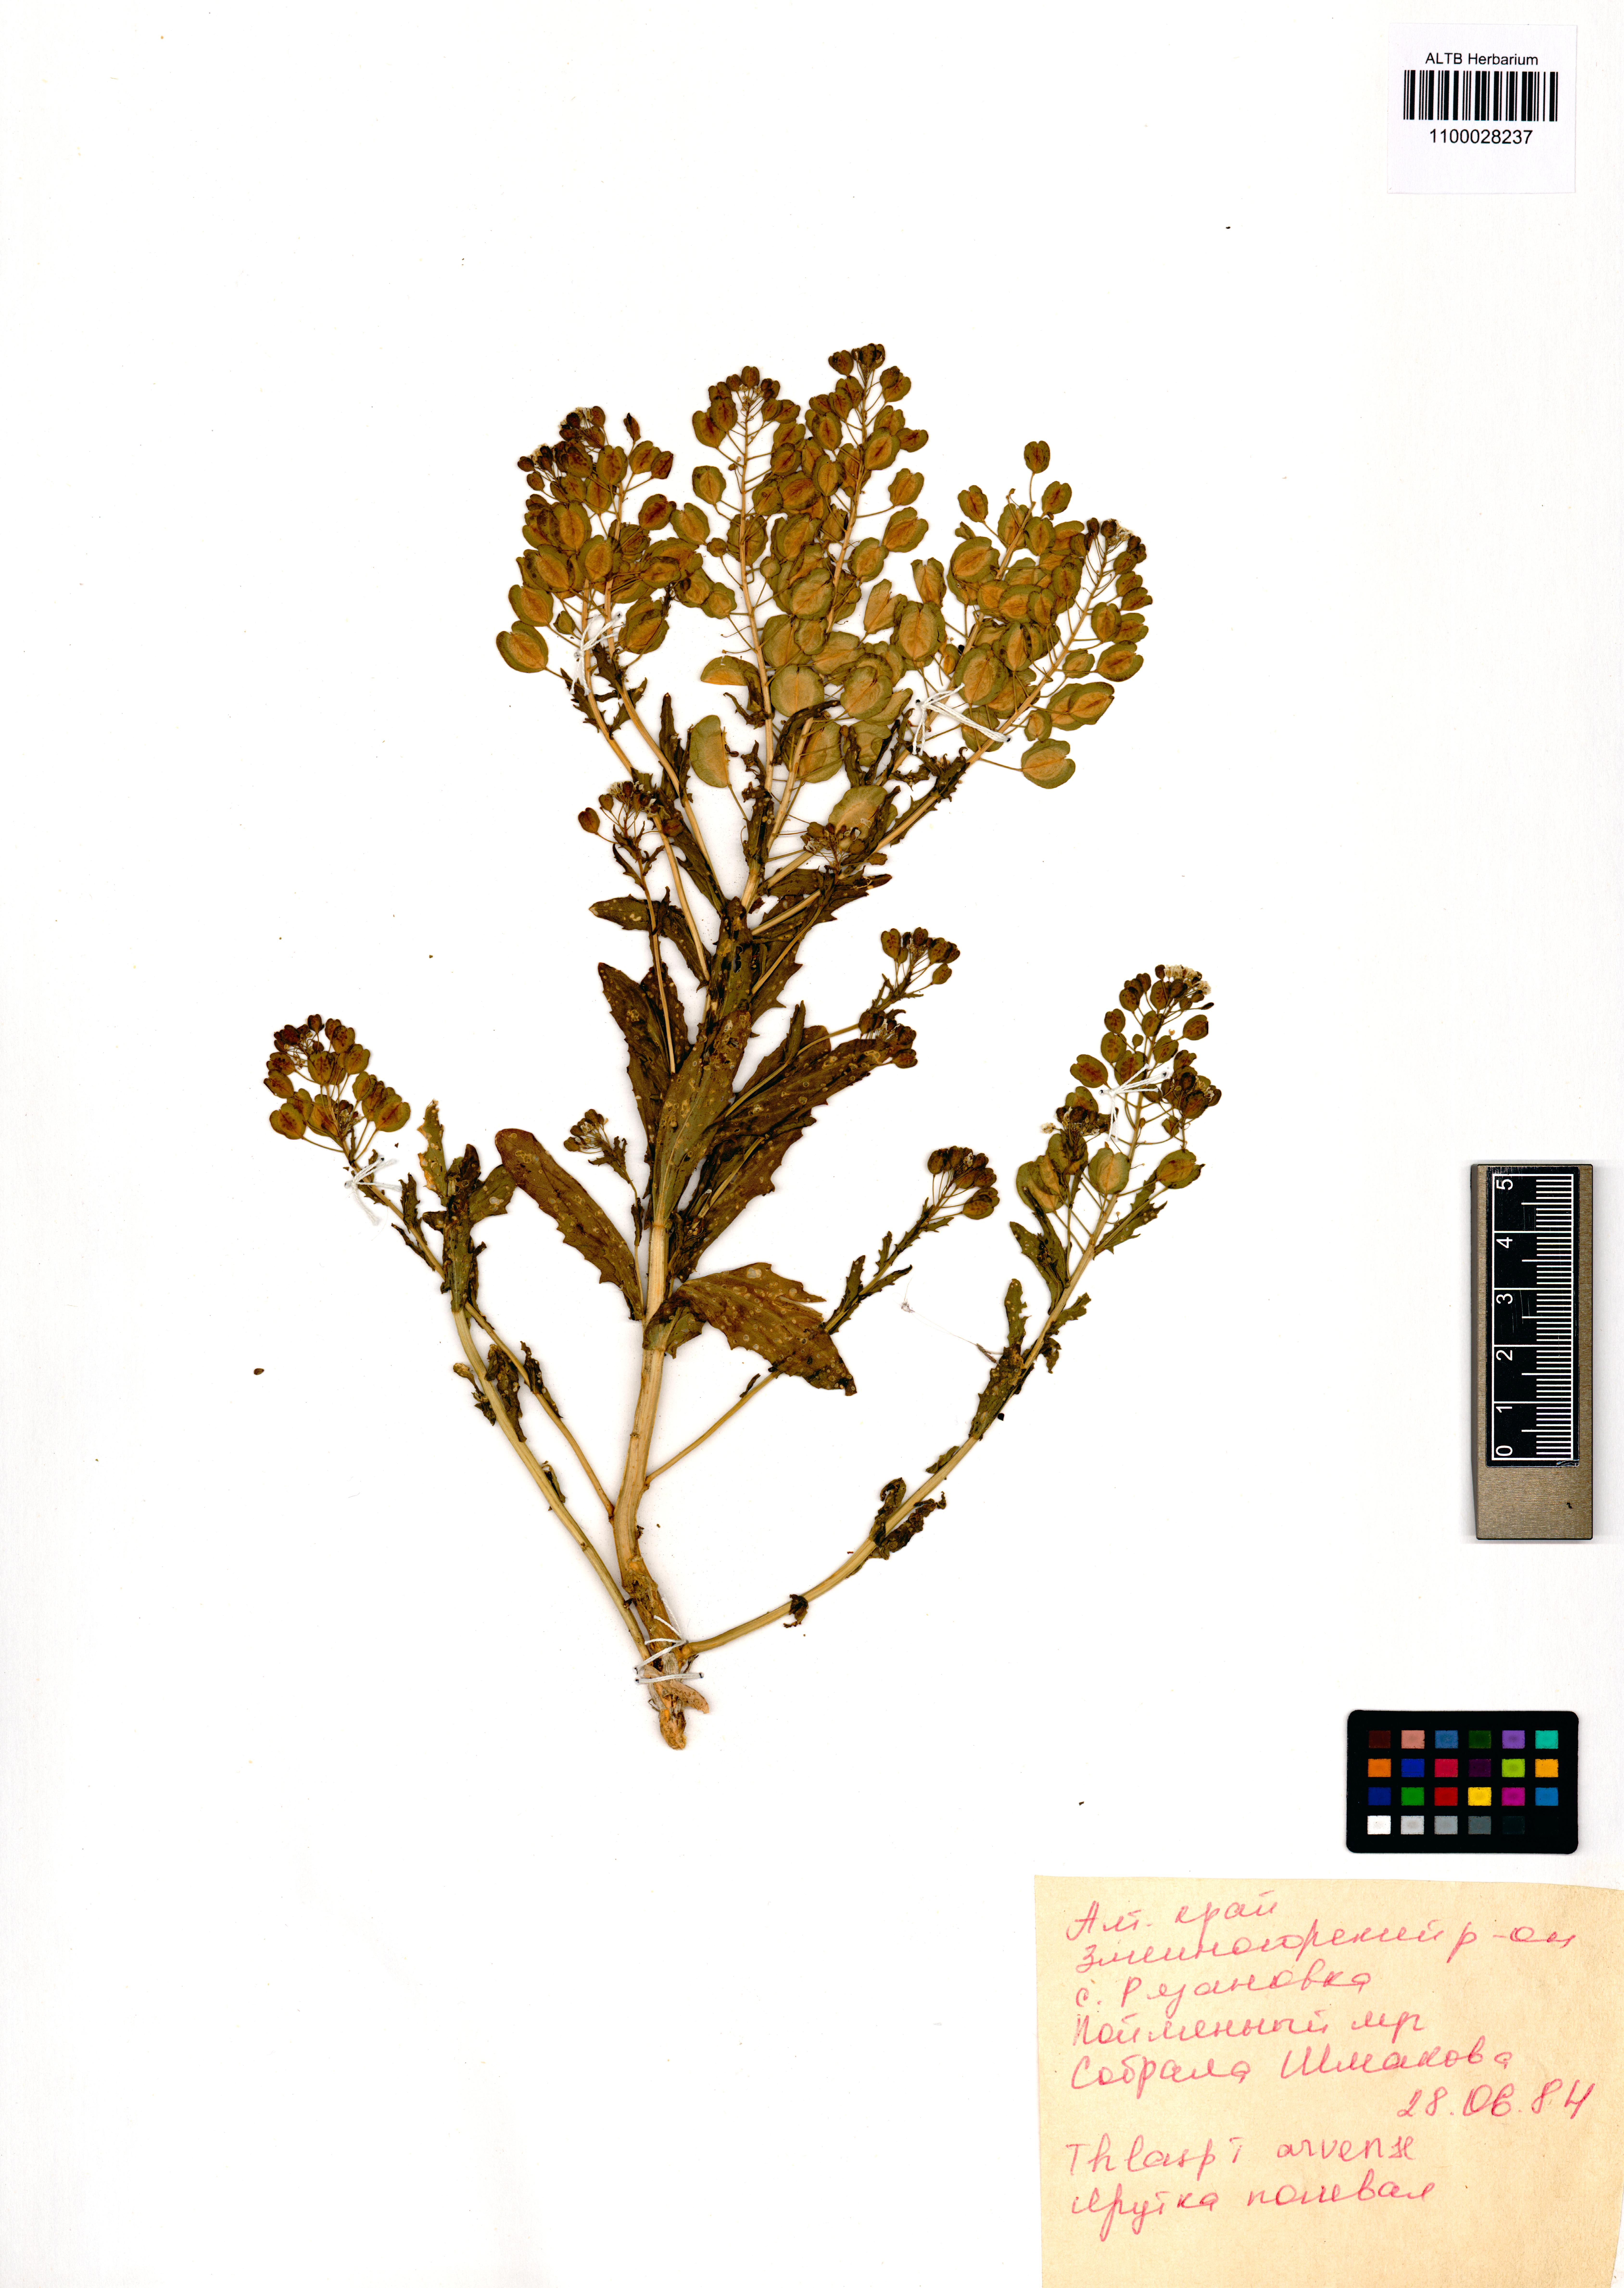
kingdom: Plantae
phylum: Tracheophyta
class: Magnoliopsida
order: Brassicales
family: Brassicaceae
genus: Thlaspi
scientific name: Thlaspi arvense
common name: Field pennycress
